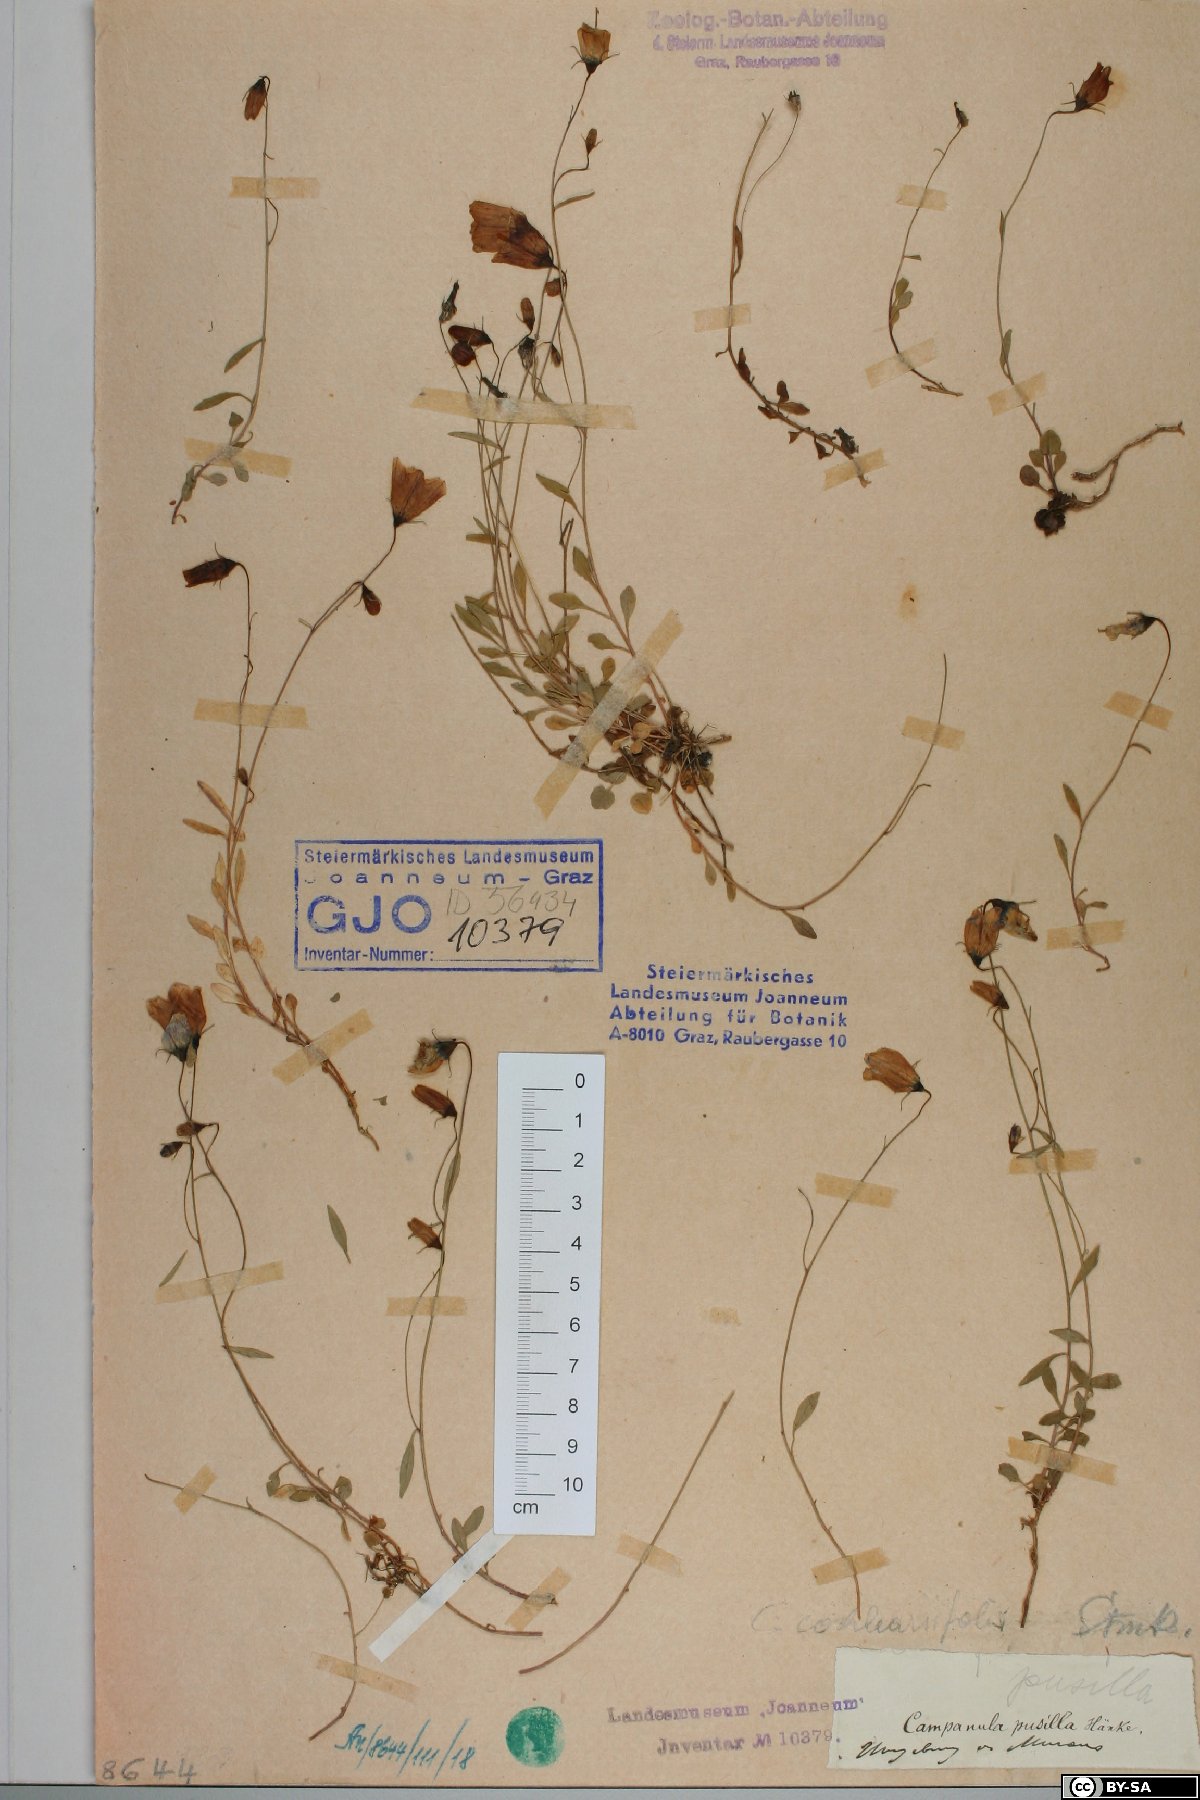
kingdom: Plantae
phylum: Tracheophyta
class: Magnoliopsida
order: Asterales
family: Campanulaceae
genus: Campanula
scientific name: Campanula cochleariifolia
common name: Fairies'-thimbles
